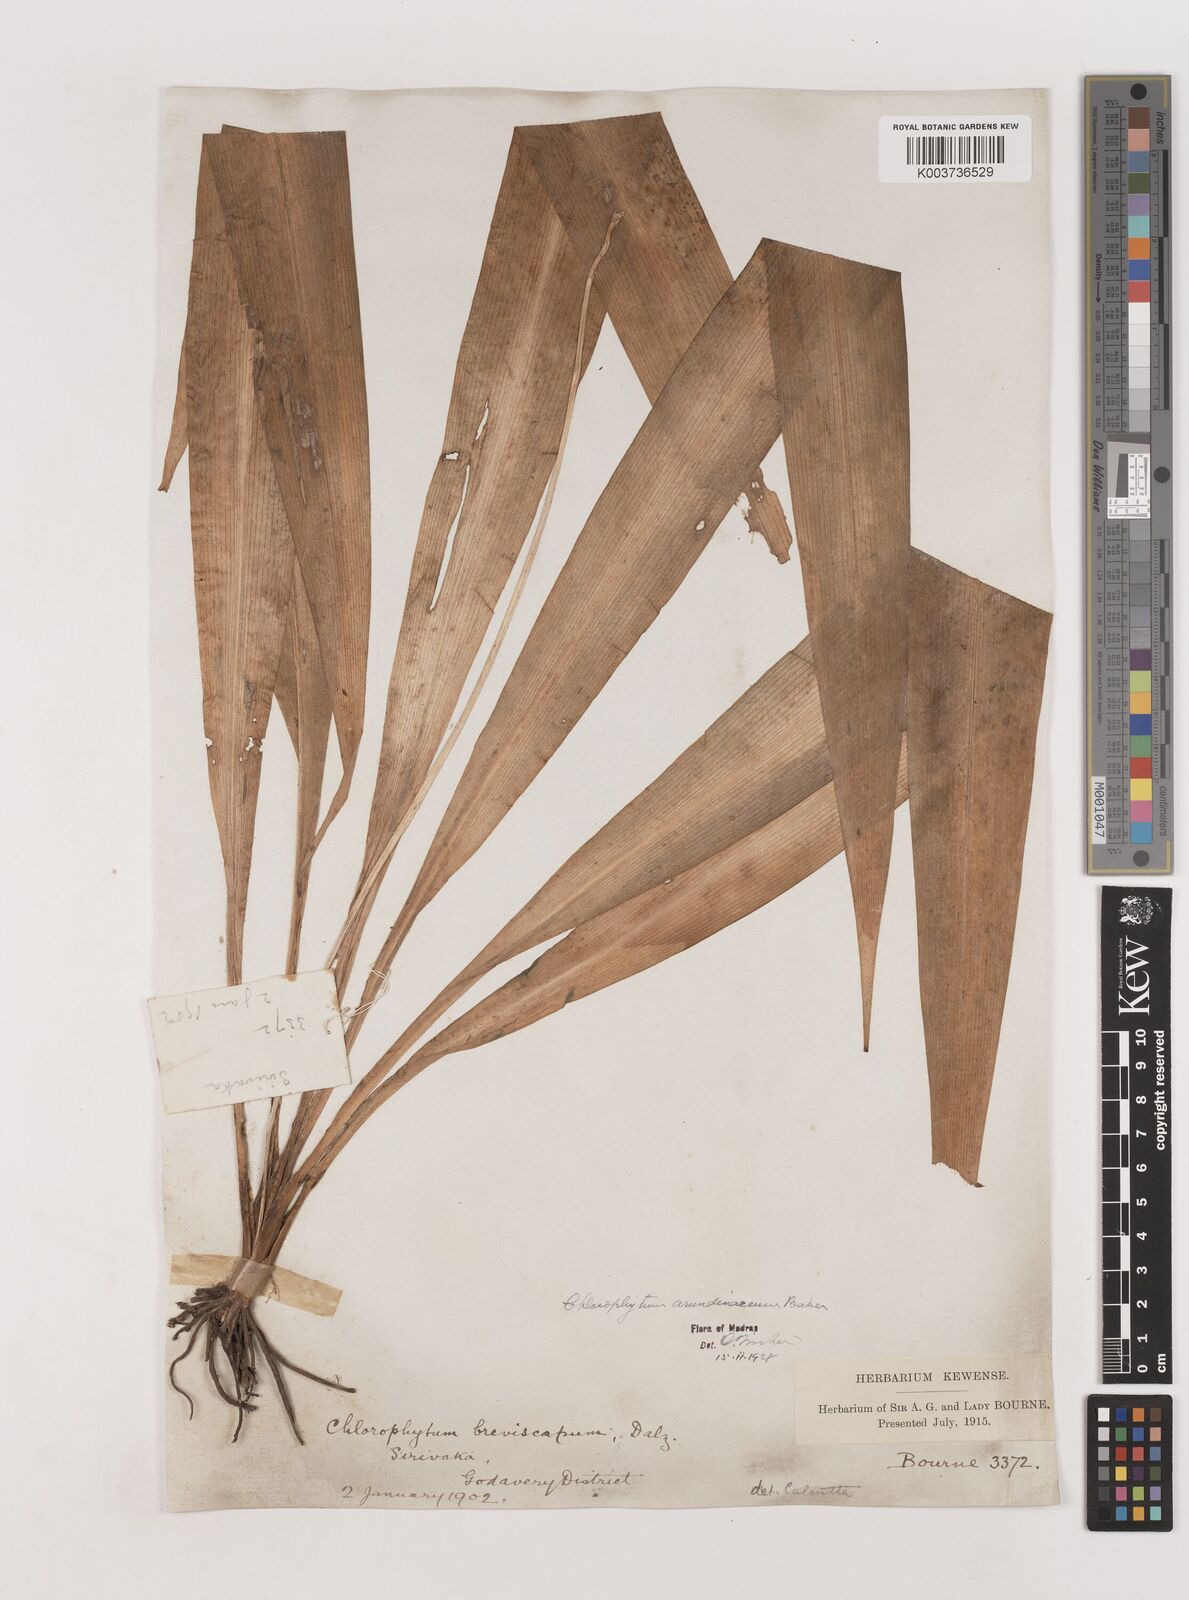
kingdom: Plantae
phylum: Tracheophyta
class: Liliopsida
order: Asparagales
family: Asparagaceae
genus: Chlorophytum
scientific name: Chlorophytum arundinaceum
